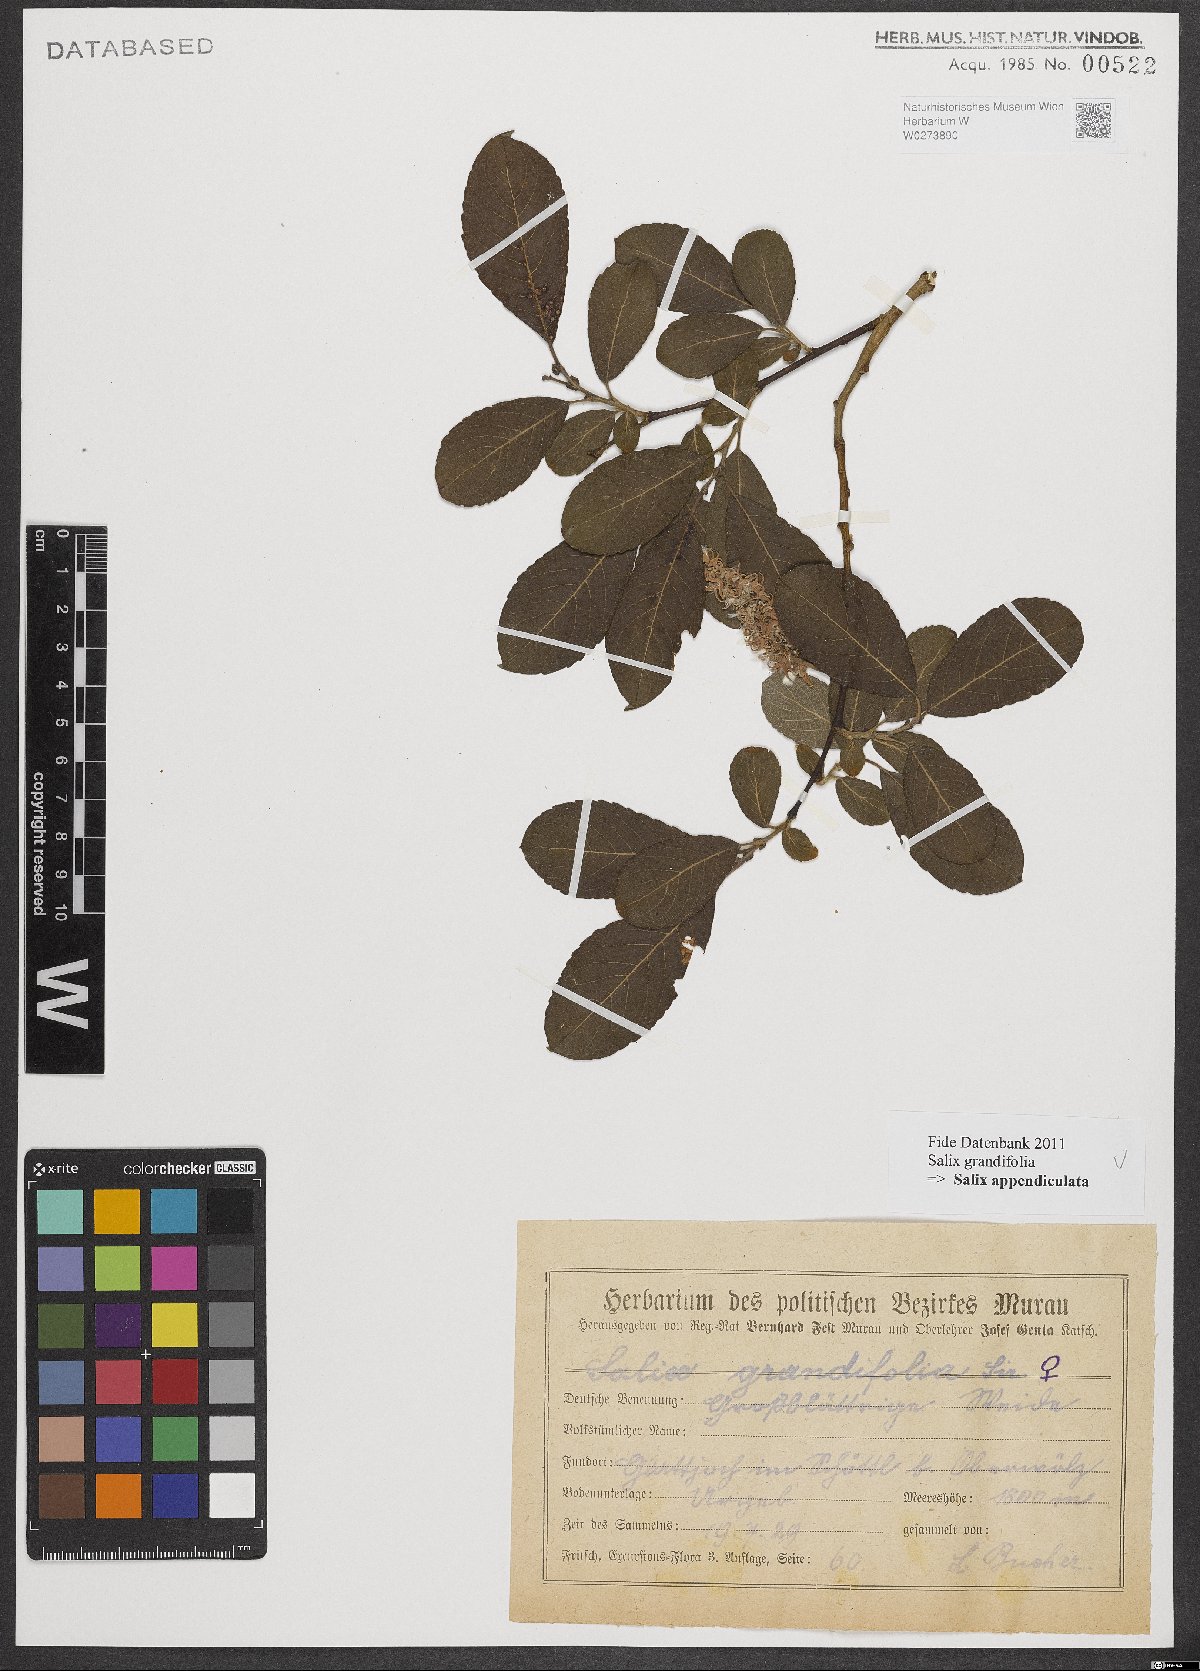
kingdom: Plantae
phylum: Tracheophyta
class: Magnoliopsida
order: Malpighiales
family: Salicaceae
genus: Salix
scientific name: Salix appendiculata
